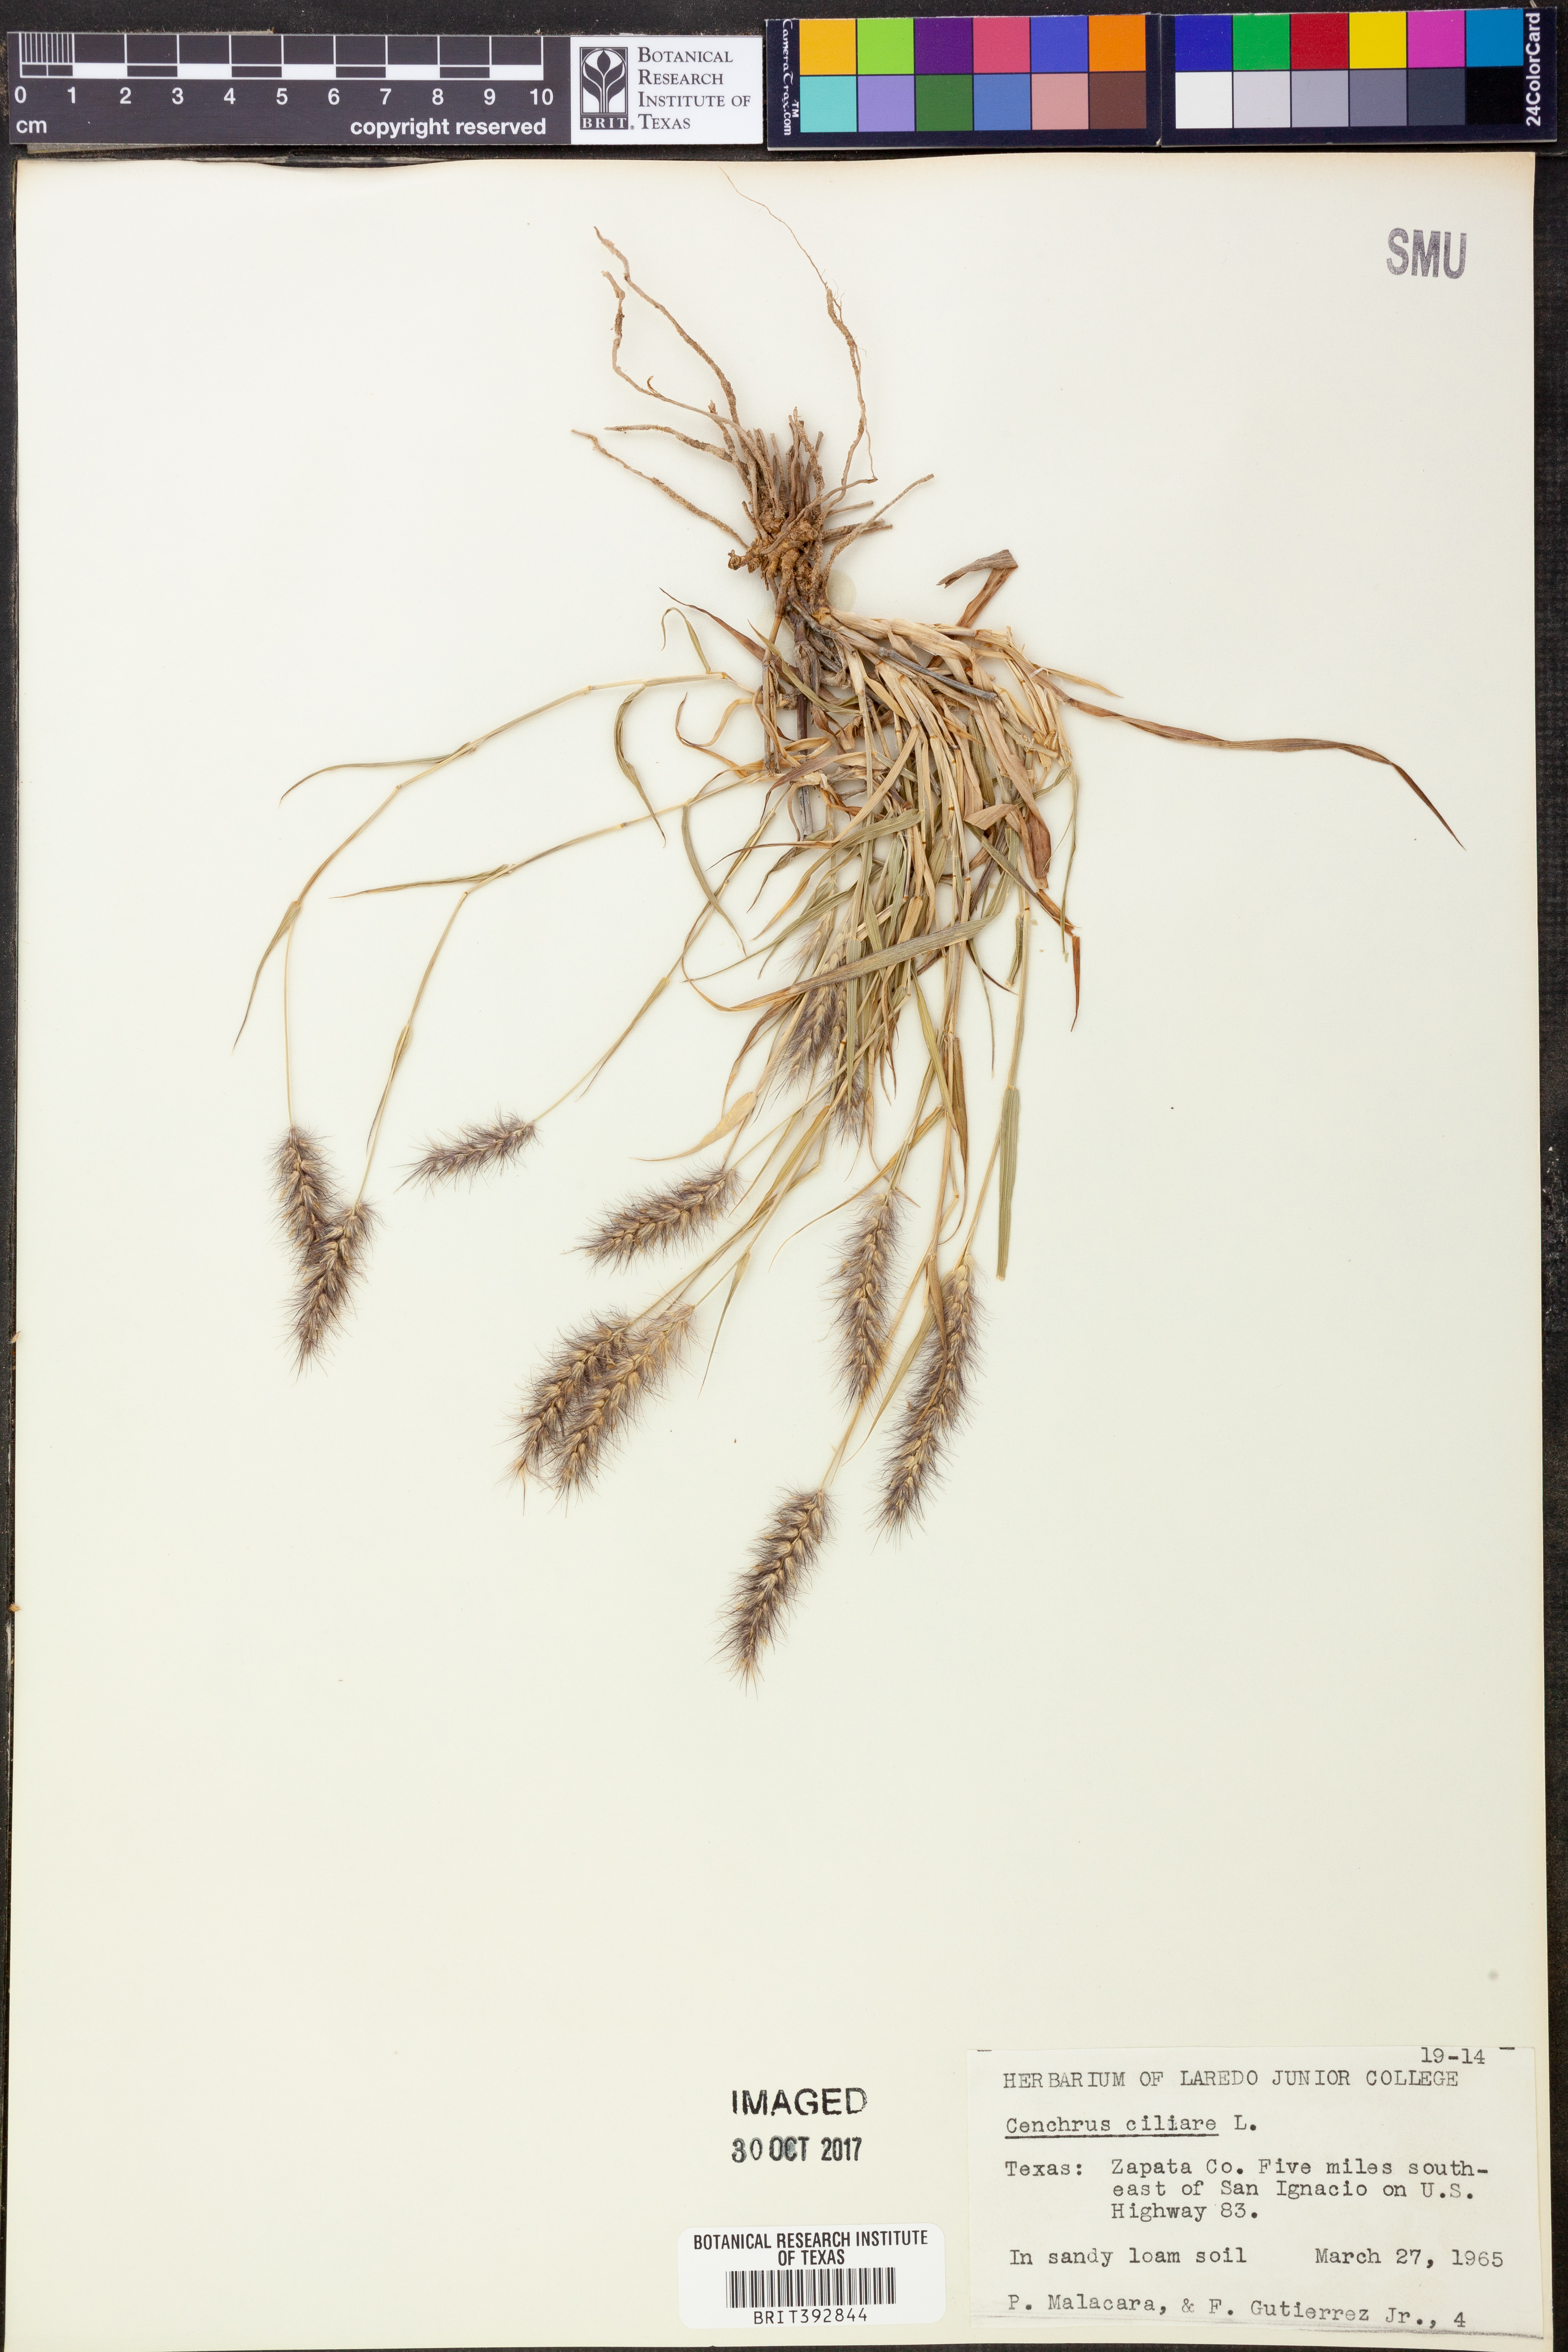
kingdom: Plantae
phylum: Tracheophyta
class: Liliopsida
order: Poales
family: Poaceae
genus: Cenchrus
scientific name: Cenchrus ciliaris
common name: Buffelgrass
